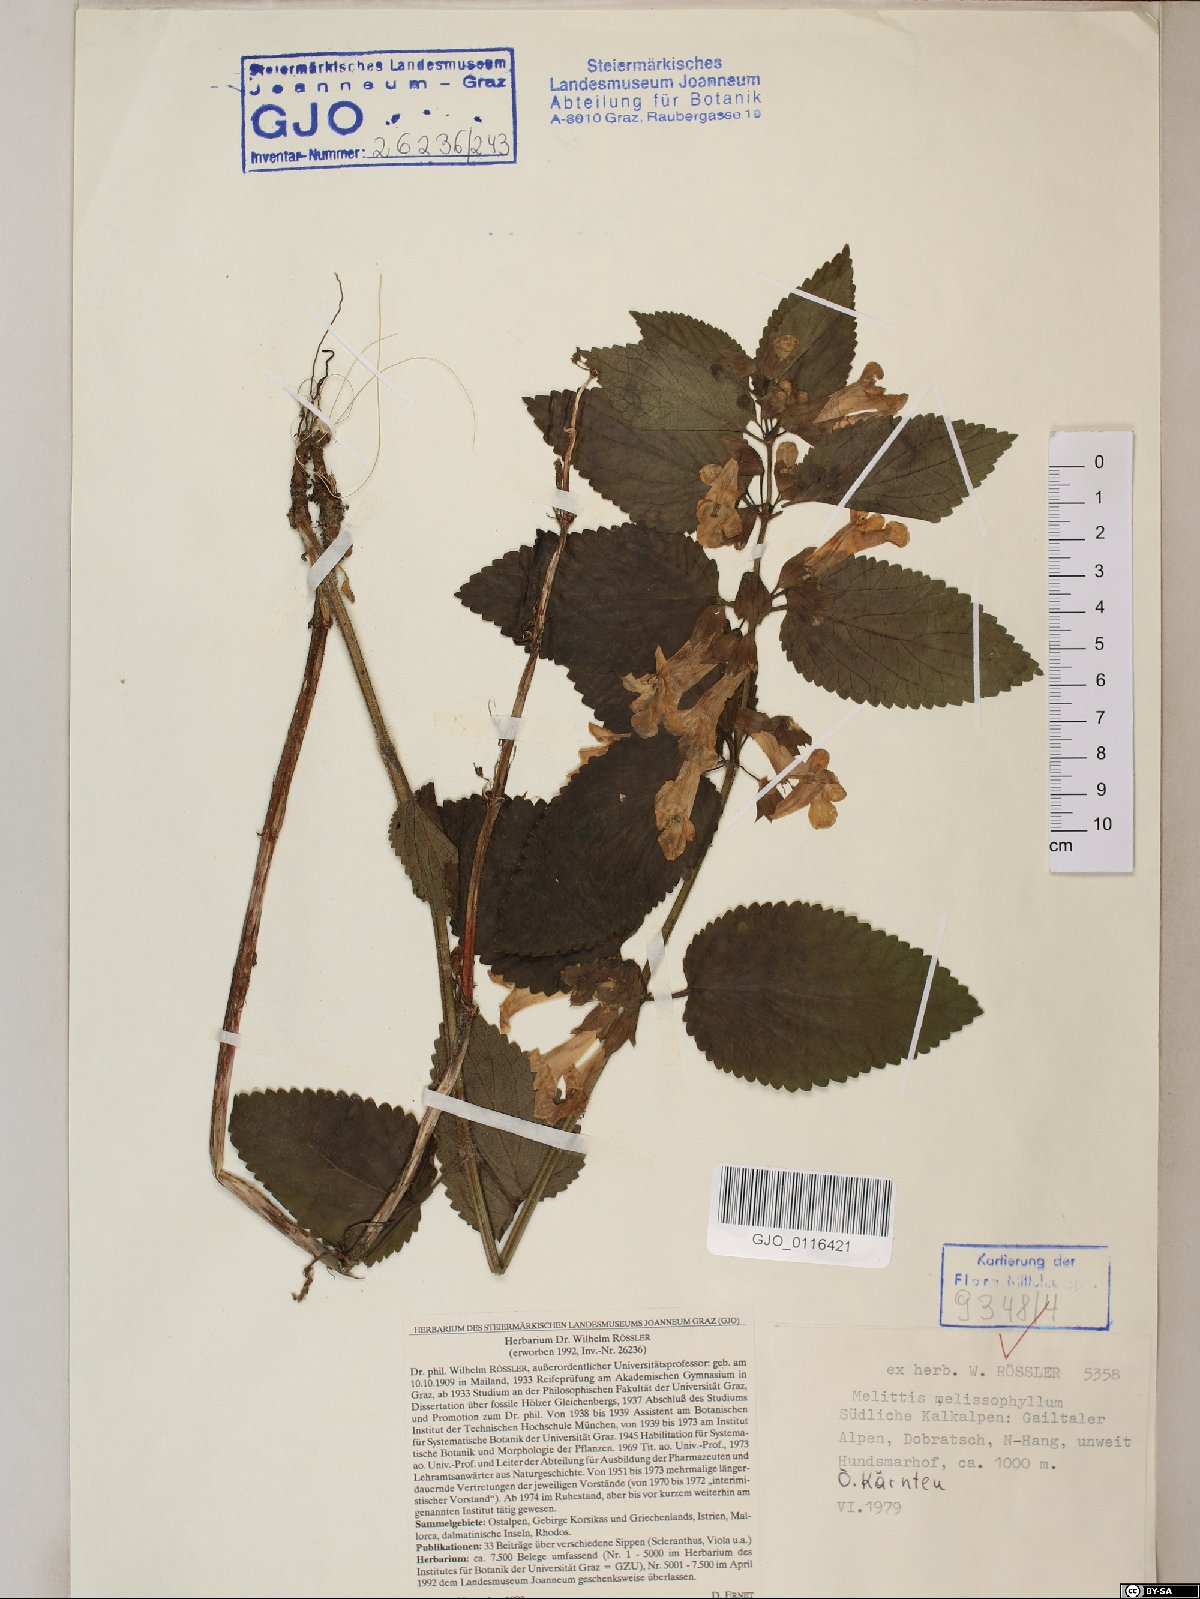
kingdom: Plantae
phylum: Tracheophyta
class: Magnoliopsida
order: Lamiales
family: Lamiaceae
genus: Melittis
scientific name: Melittis melissophyllum
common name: Bastard balm
